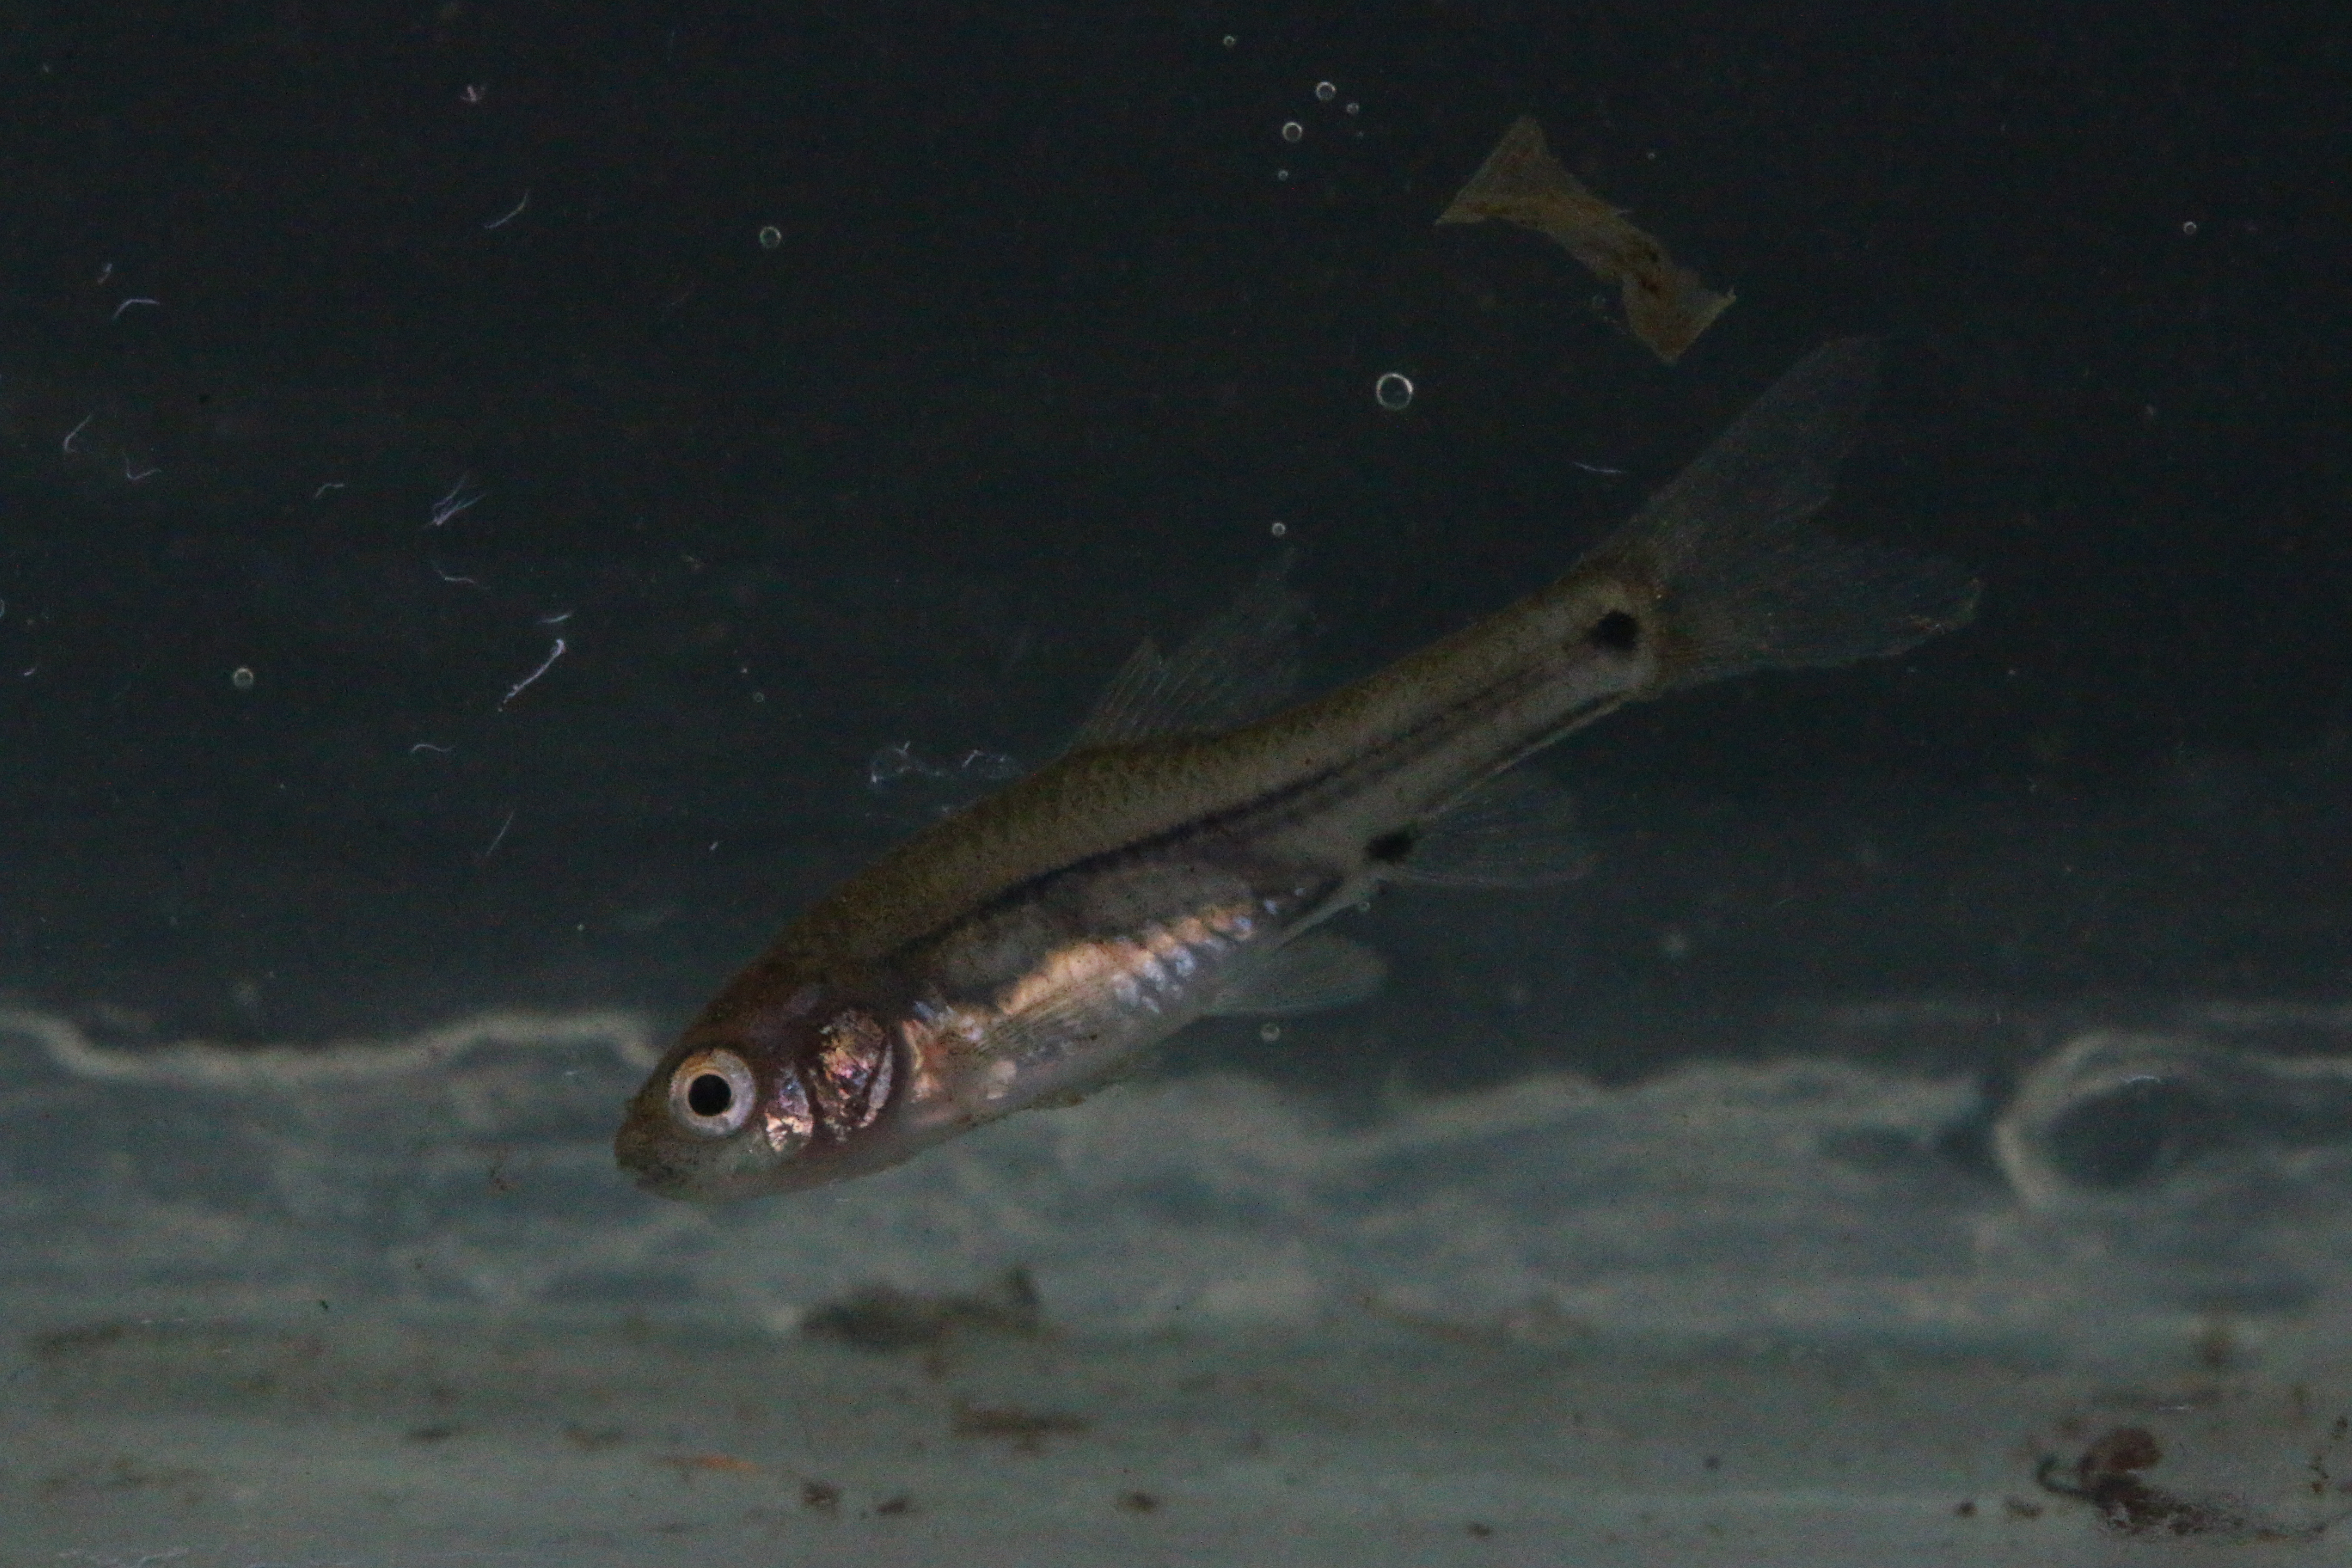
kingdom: Animalia
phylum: Chordata
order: Cypriniformes
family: Cyprinidae
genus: Enteromius
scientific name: Enteromius viviparus
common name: Bowstripe barb
